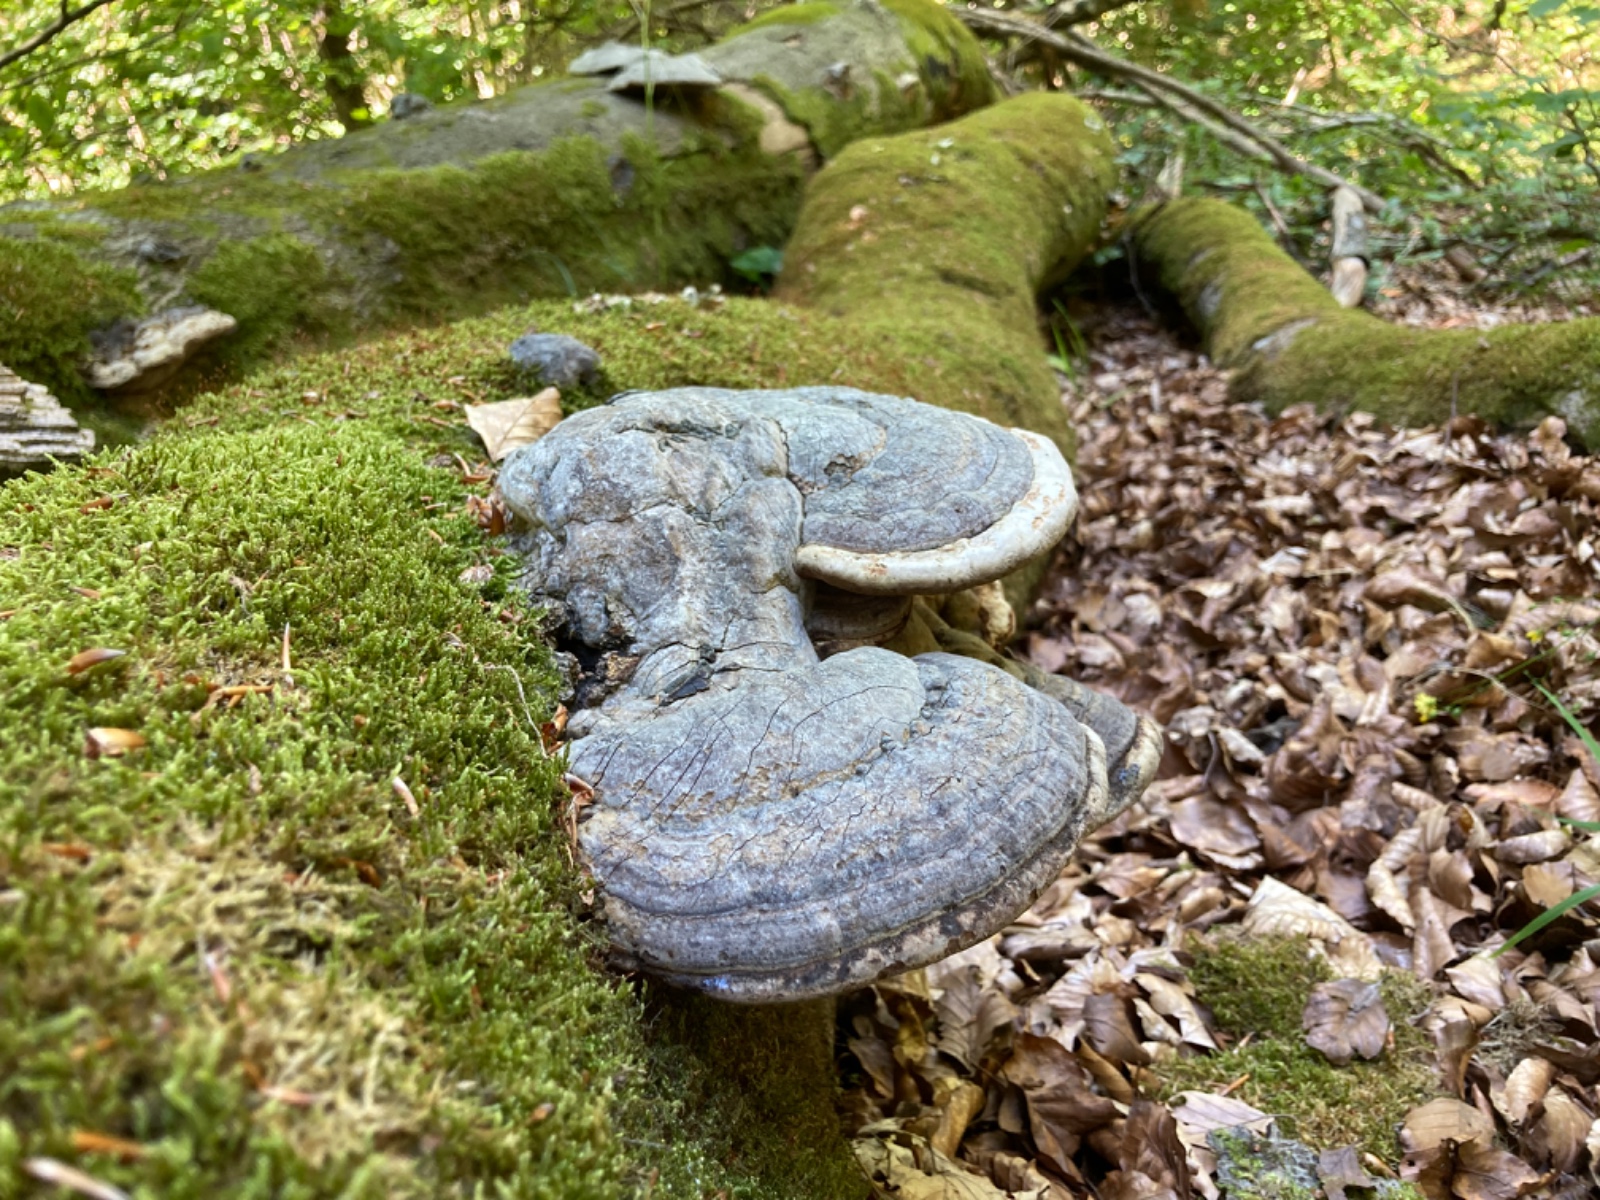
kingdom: Fungi
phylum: Basidiomycota
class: Agaricomycetes
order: Polyporales
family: Polyporaceae
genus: Fomes
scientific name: Fomes fomentarius
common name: tøndersvamp
